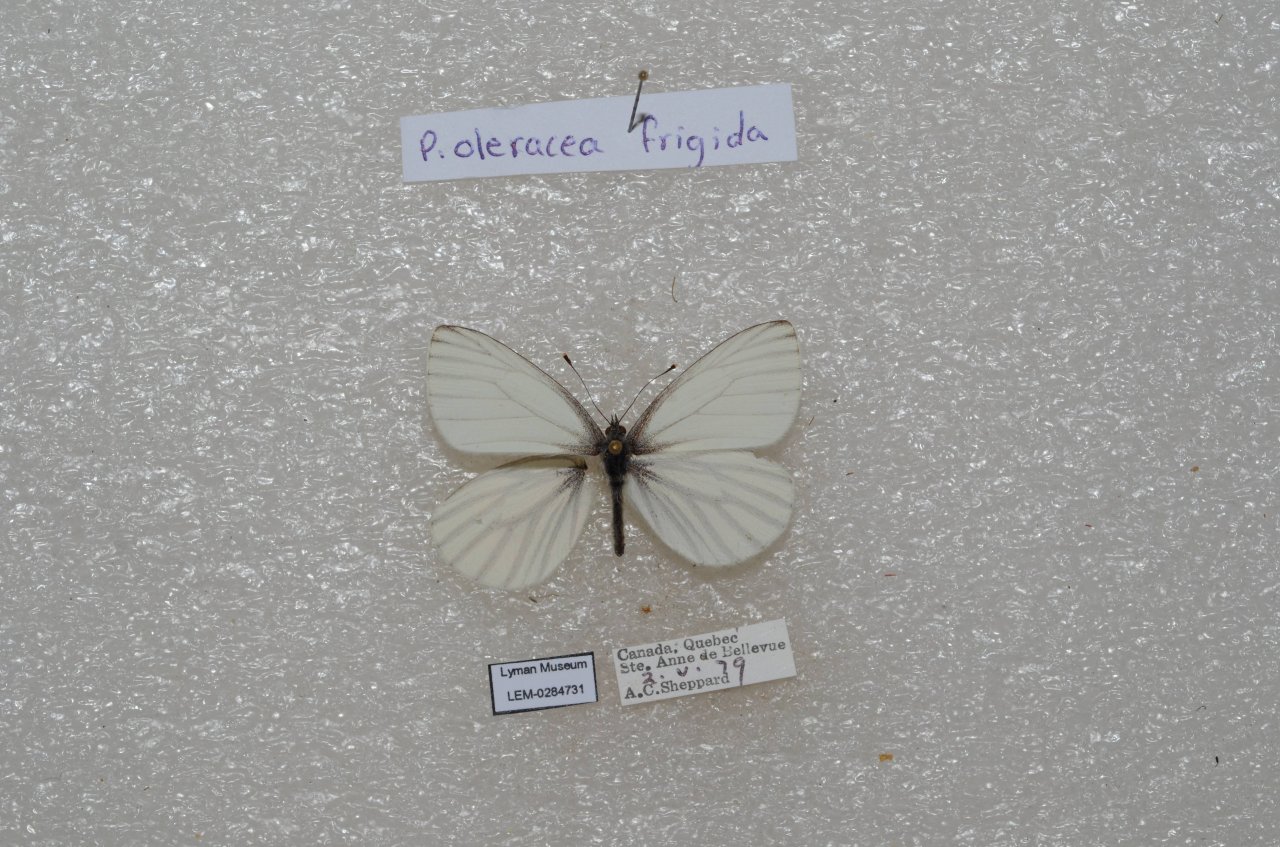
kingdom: Animalia
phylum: Arthropoda
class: Insecta
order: Lepidoptera
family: Pieridae
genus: Pieris
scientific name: Pieris oleracea
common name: Mustard White
